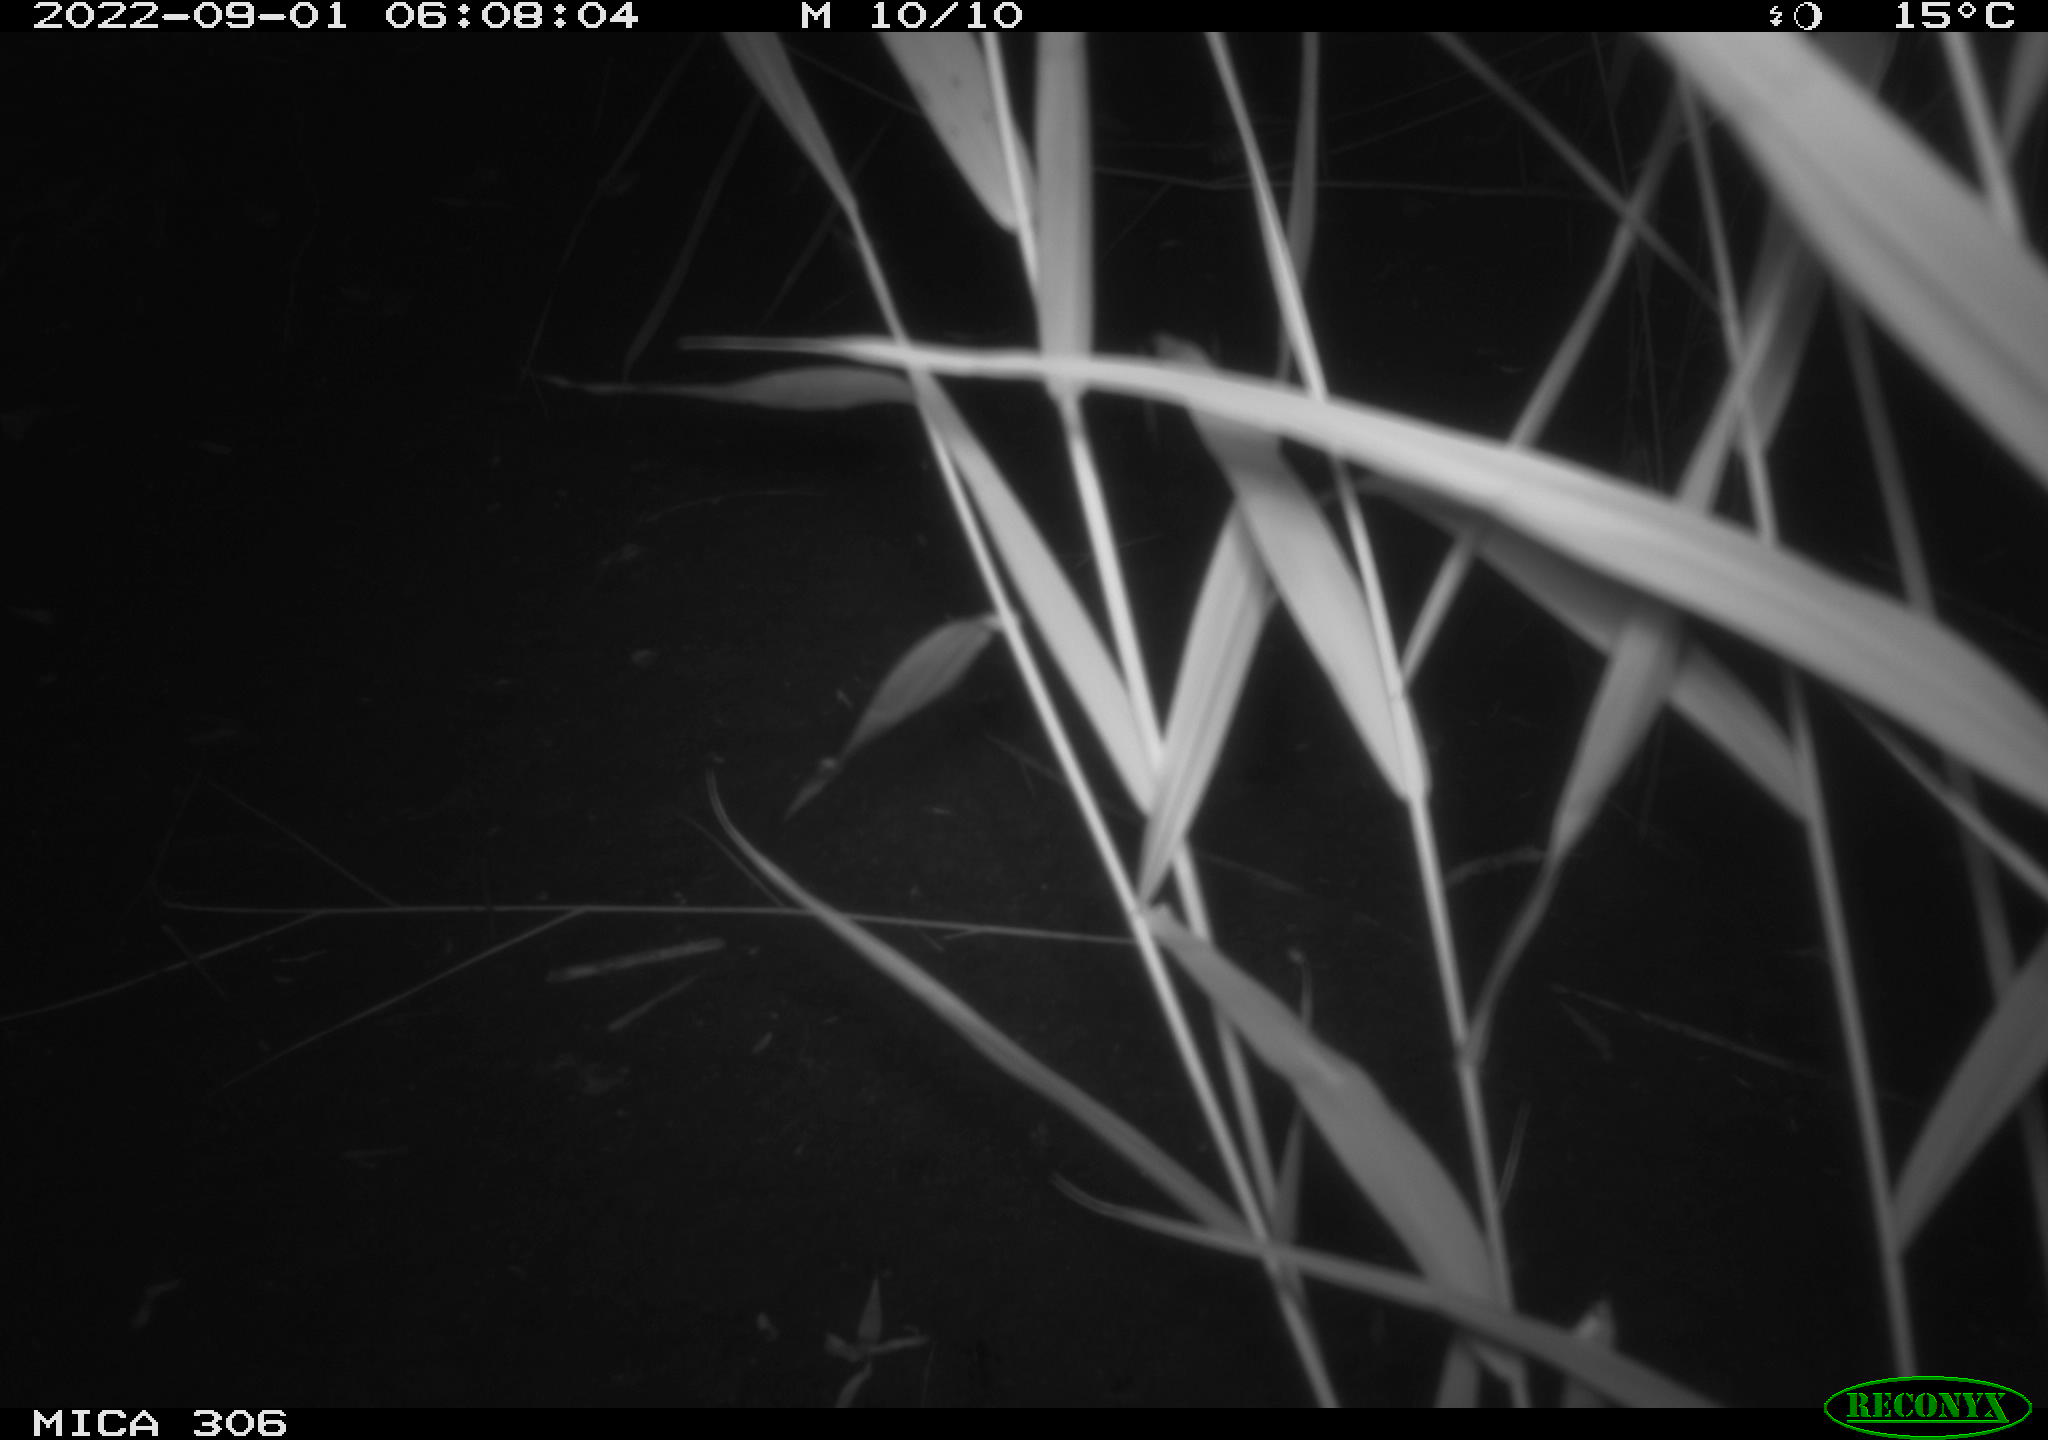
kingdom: Animalia
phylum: Chordata
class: Mammalia
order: Rodentia
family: Muridae
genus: Rattus
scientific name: Rattus norvegicus
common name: Brown rat
